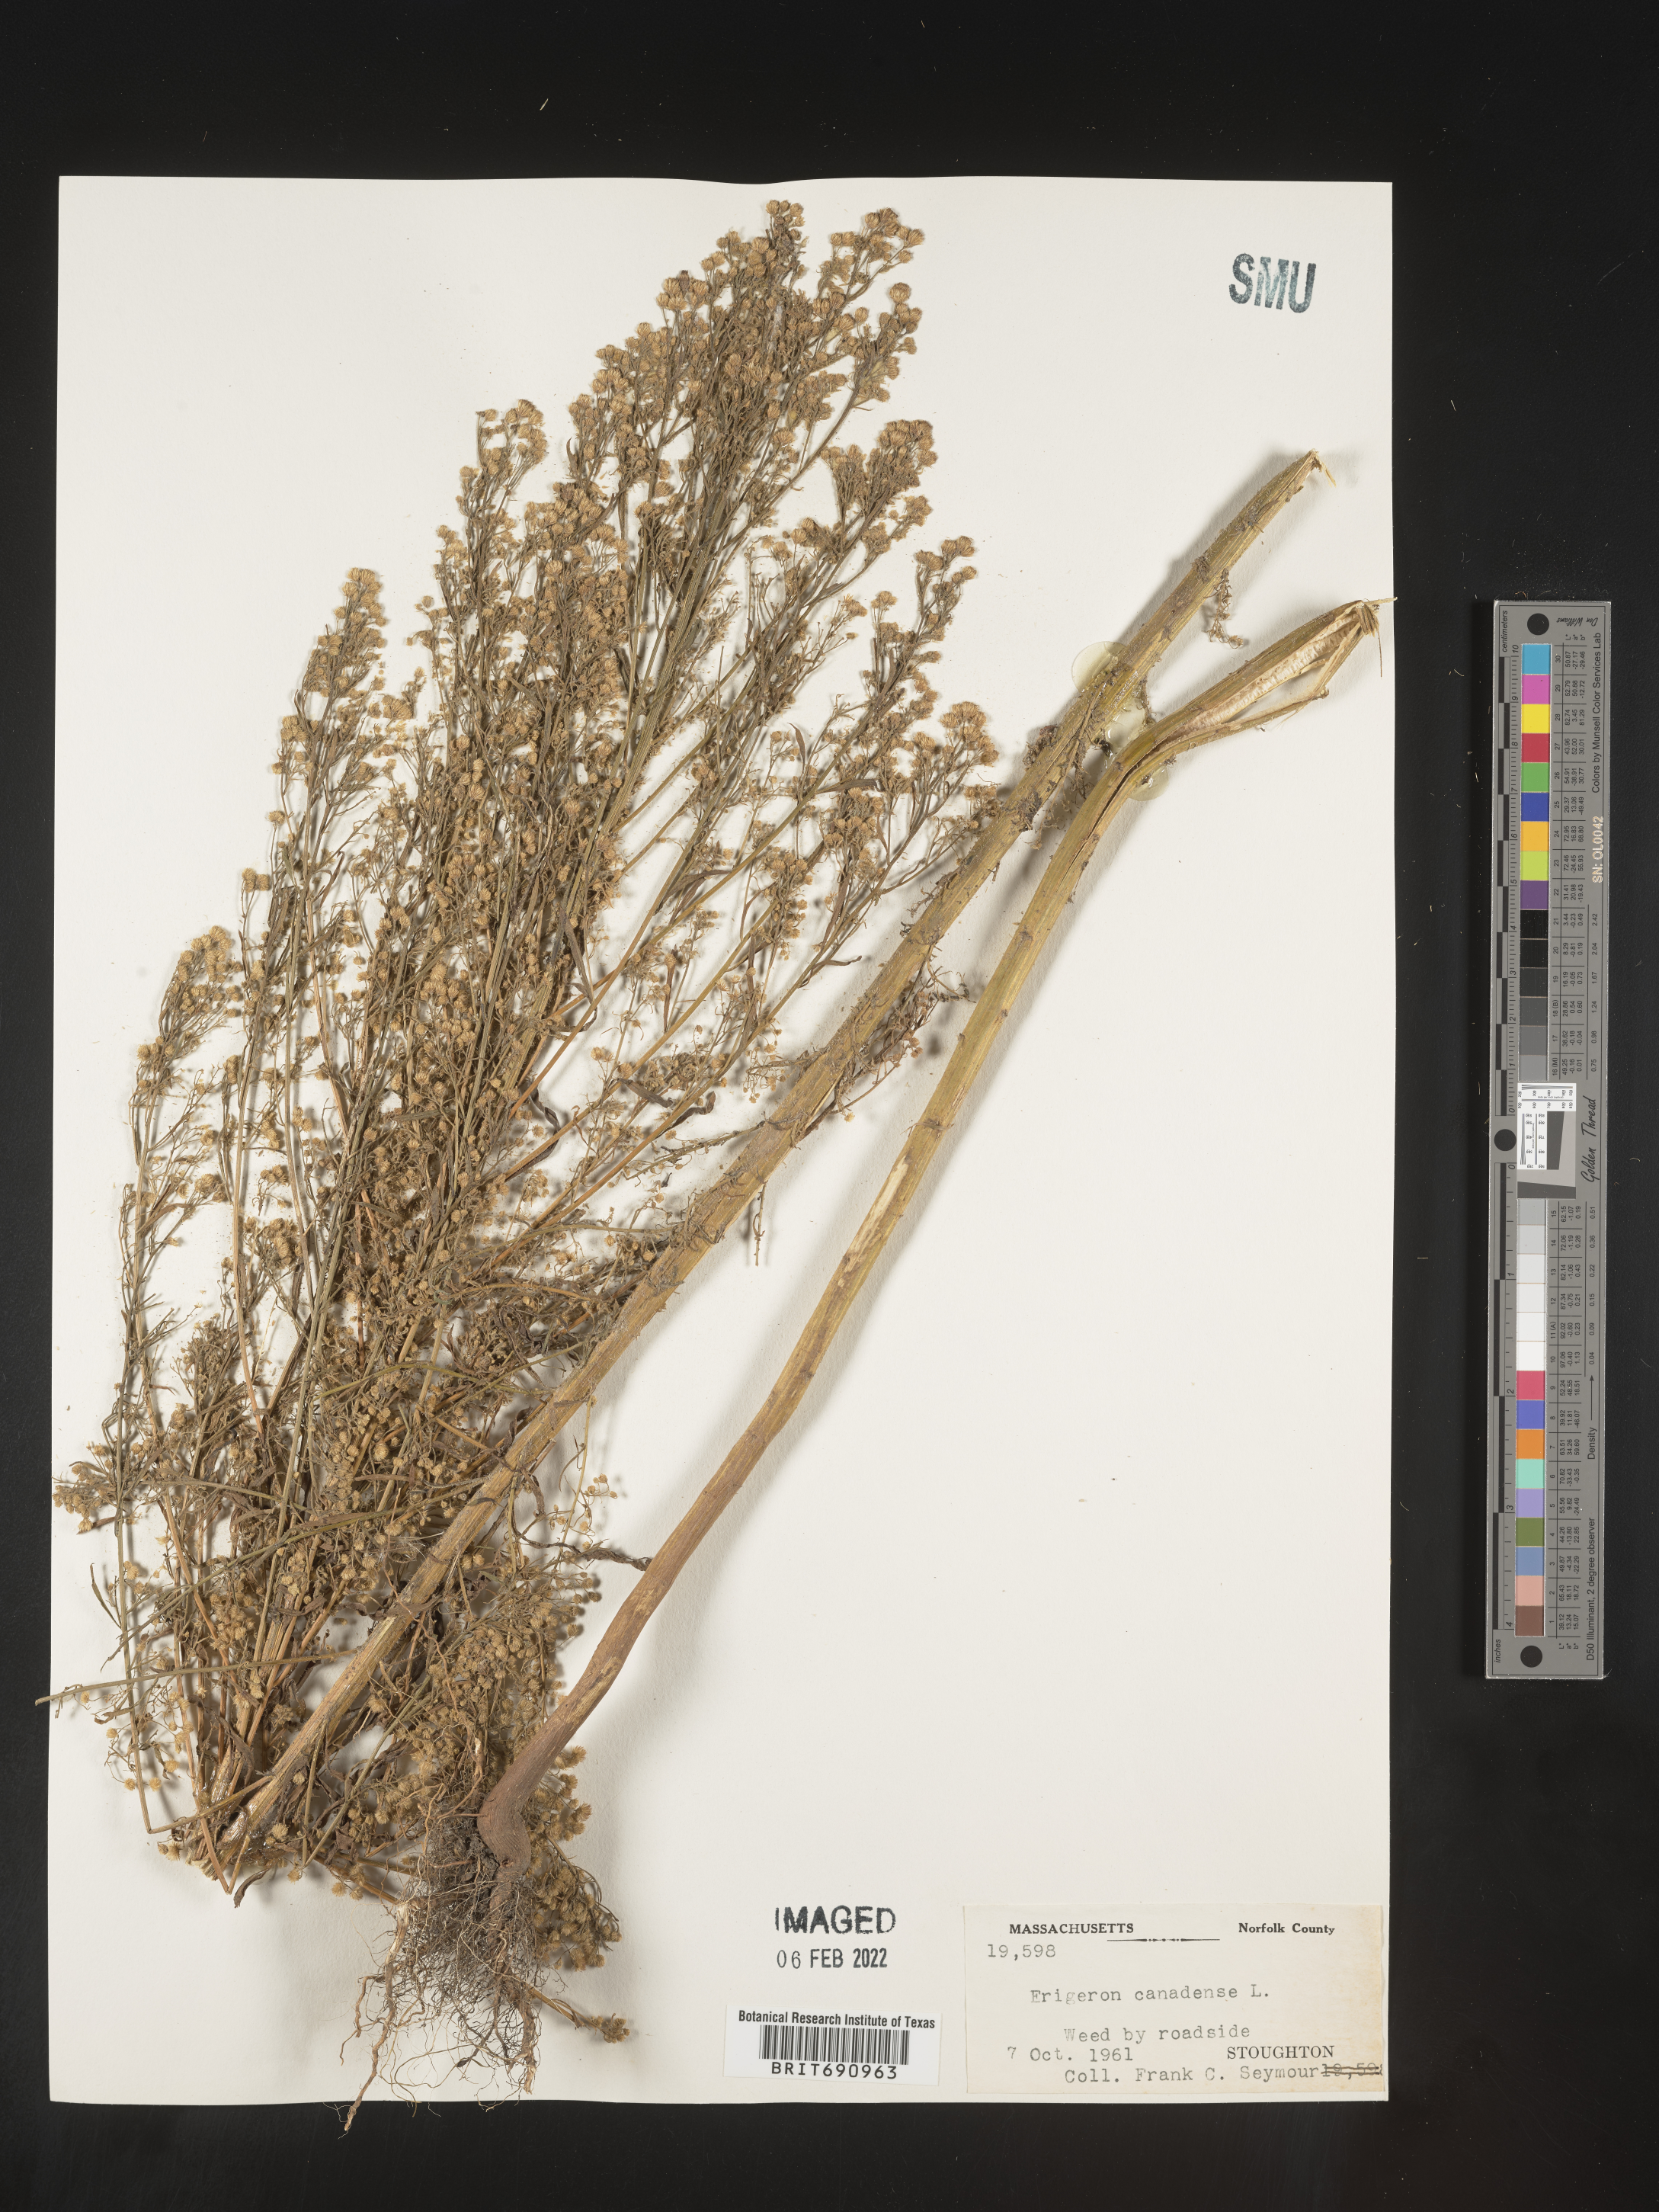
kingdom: Plantae
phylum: Tracheophyta
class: Magnoliopsida
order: Asterales
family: Asteraceae
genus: Erigeron
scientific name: Erigeron canadensis
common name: Canadian fleabane
